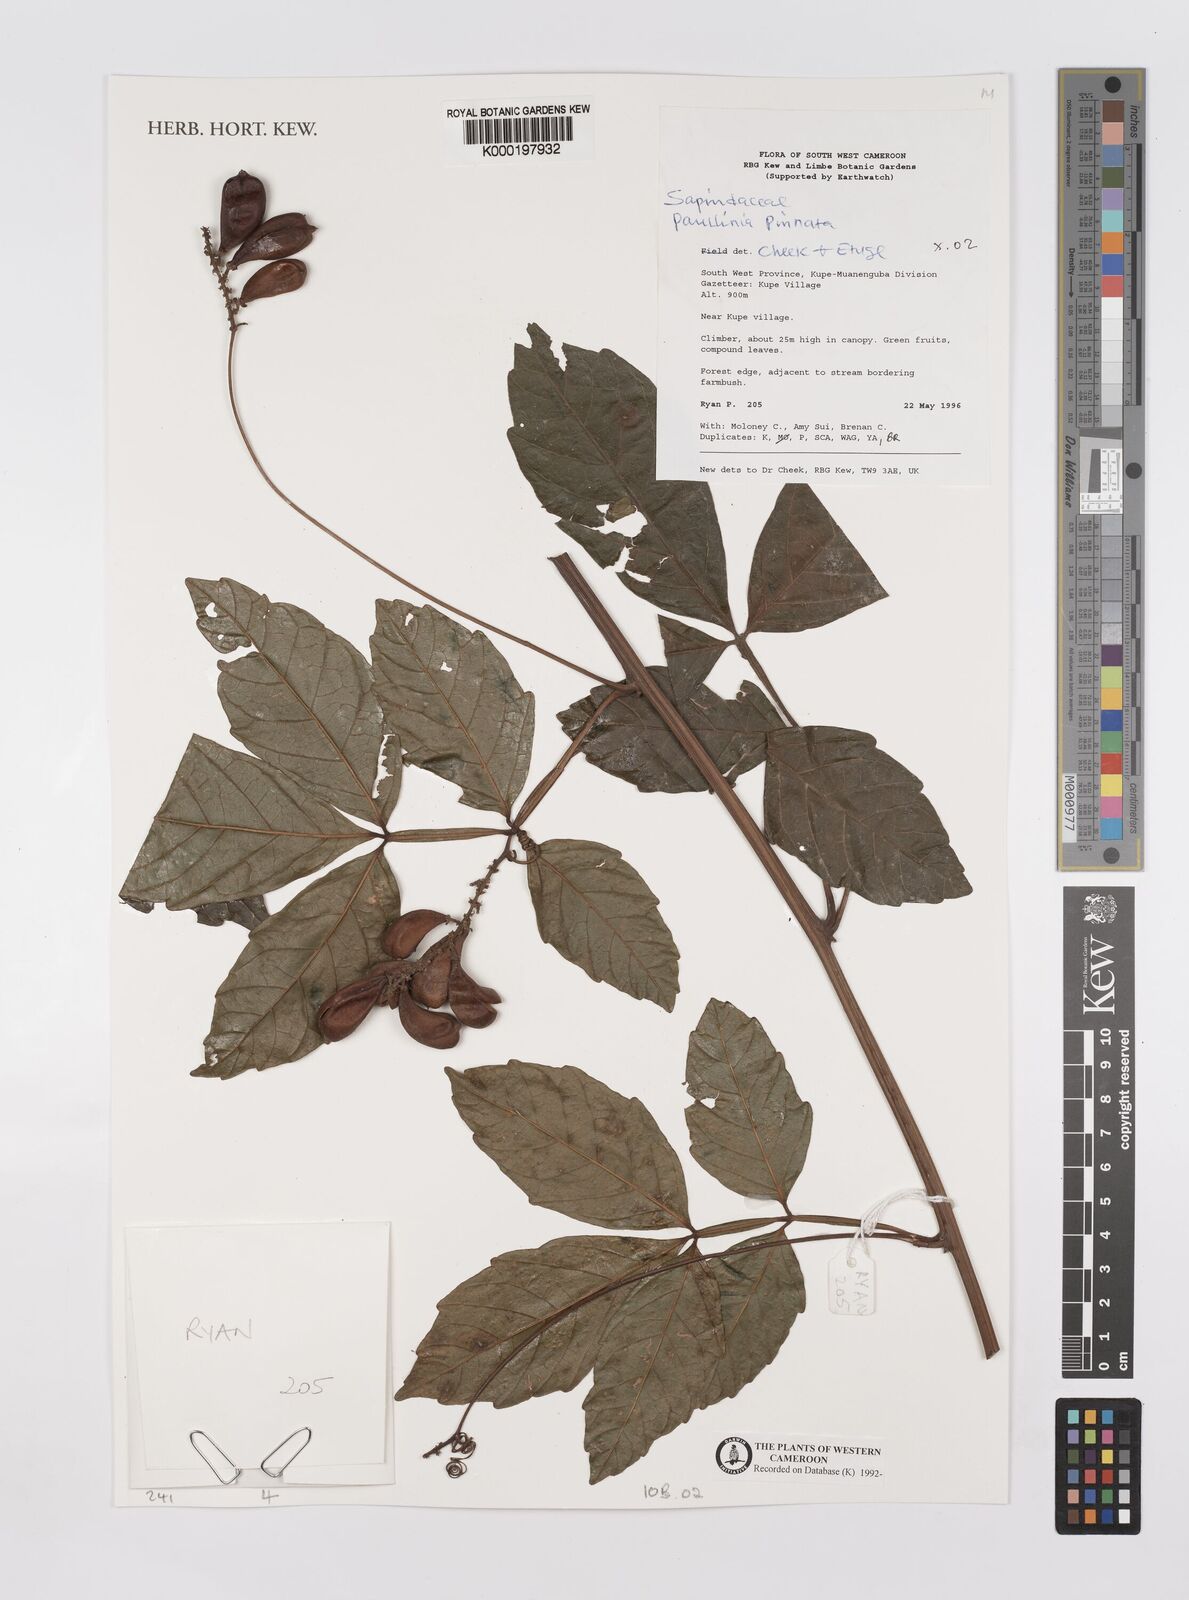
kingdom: Plantae
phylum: Tracheophyta
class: Magnoliopsida
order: Sapindales
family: Sapindaceae
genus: Paullinia
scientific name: Paullinia pinnata
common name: Barbasco
